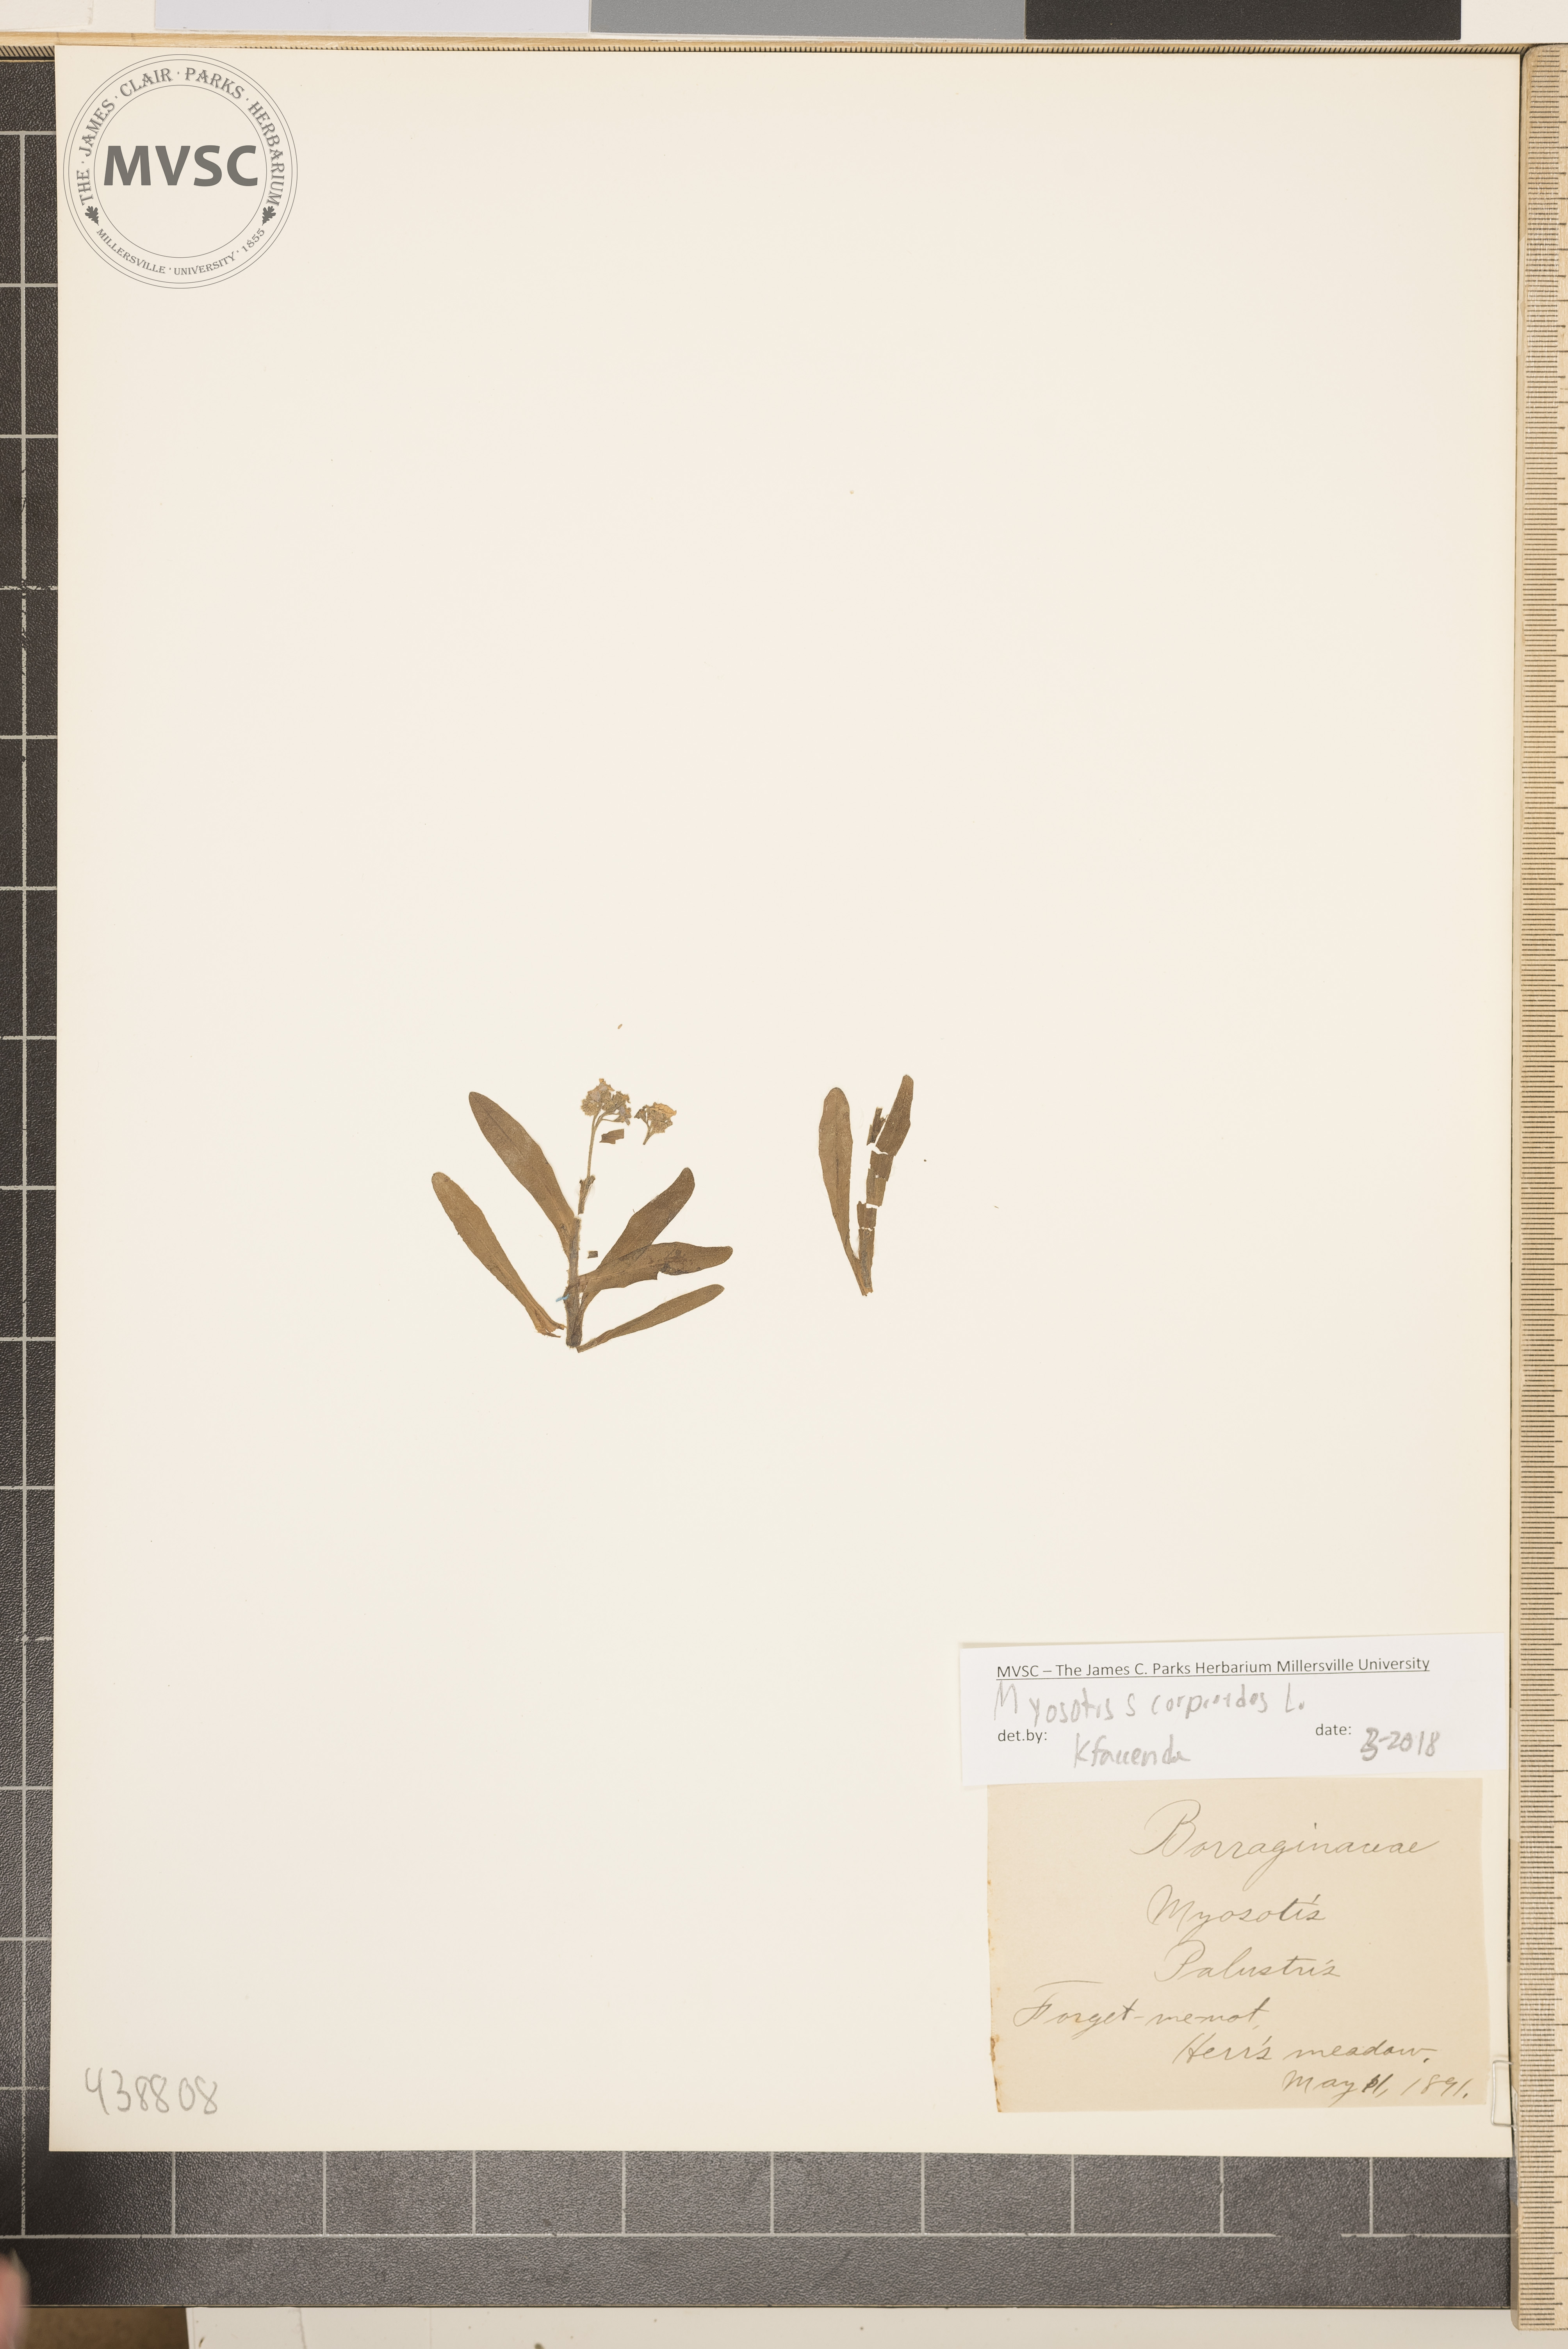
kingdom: Plantae
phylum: Tracheophyta
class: Magnoliopsida
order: Boraginales
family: Boraginaceae
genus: Myosotis
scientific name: Myosotis scorpioides
